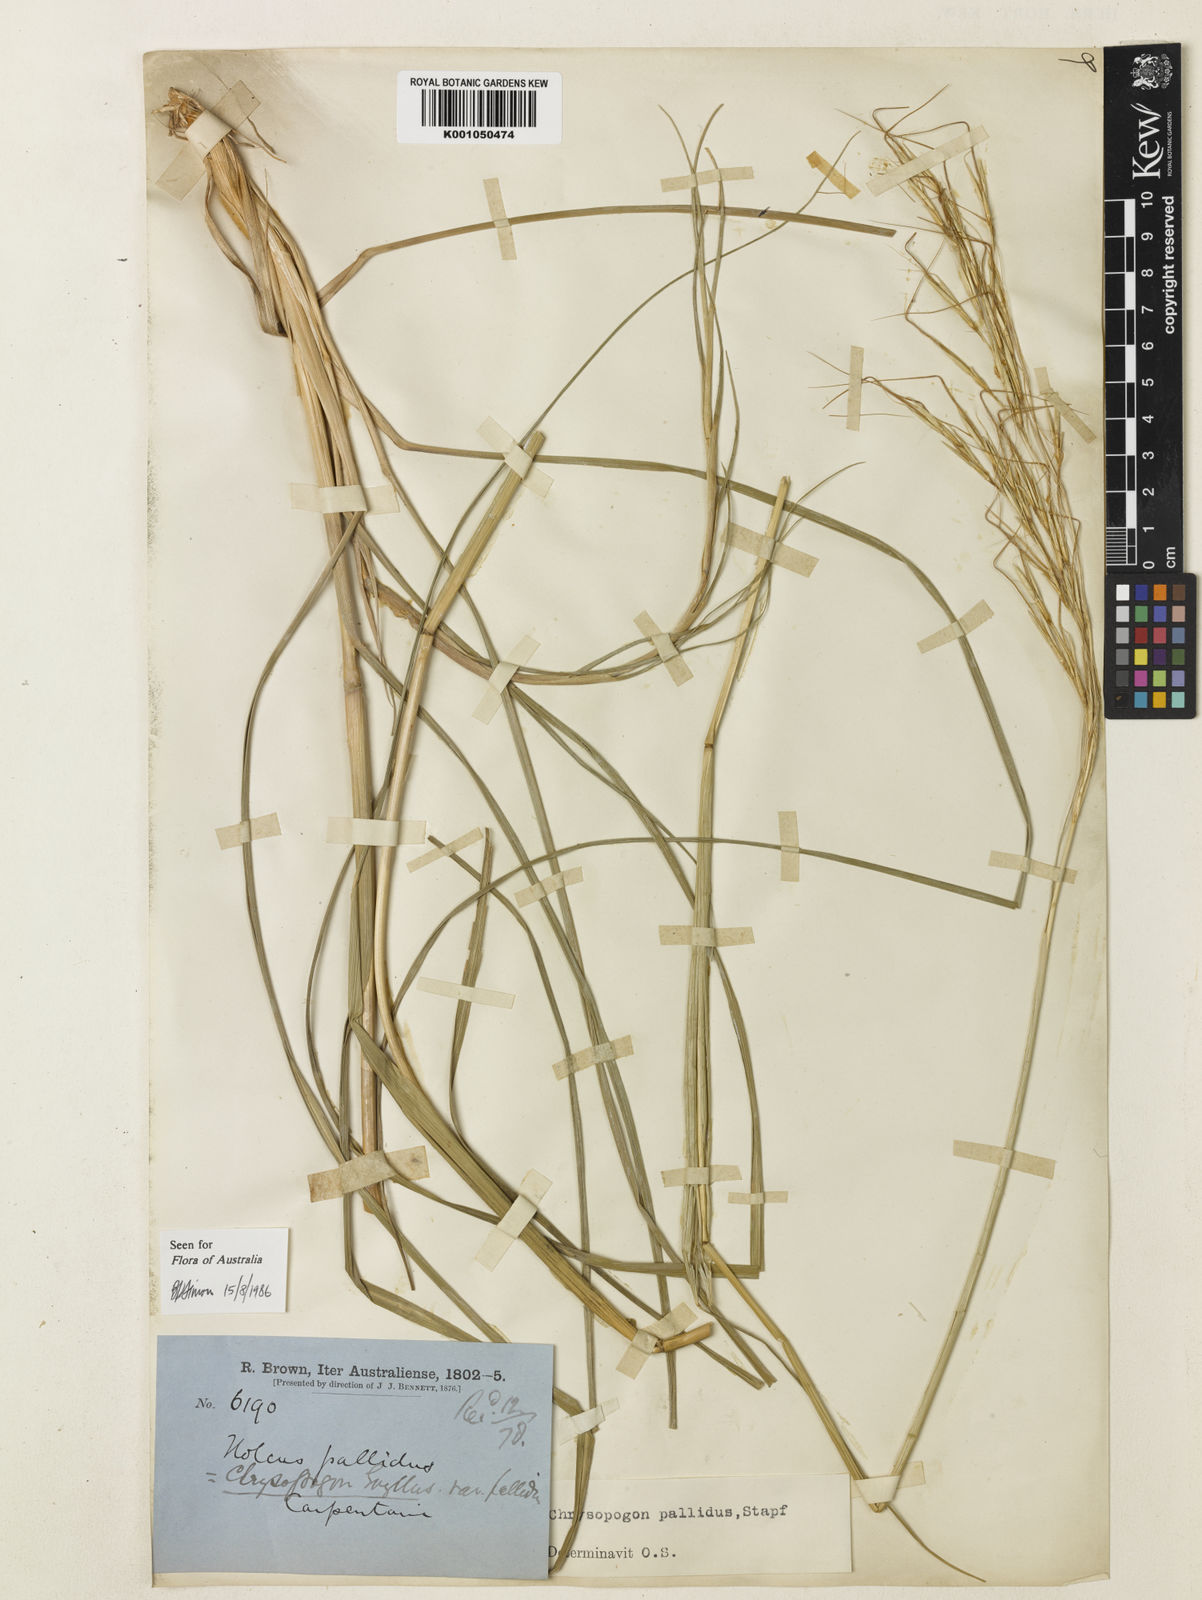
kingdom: Plantae
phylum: Tracheophyta
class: Liliopsida
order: Poales
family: Poaceae
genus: Chrysopogon
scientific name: Chrysopogon pallidus
